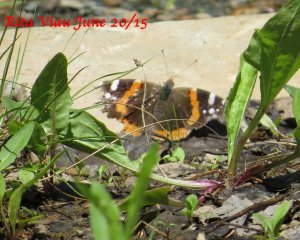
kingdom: Animalia
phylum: Arthropoda
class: Insecta
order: Lepidoptera
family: Nymphalidae
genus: Vanessa
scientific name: Vanessa atalanta
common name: Red Admiral
